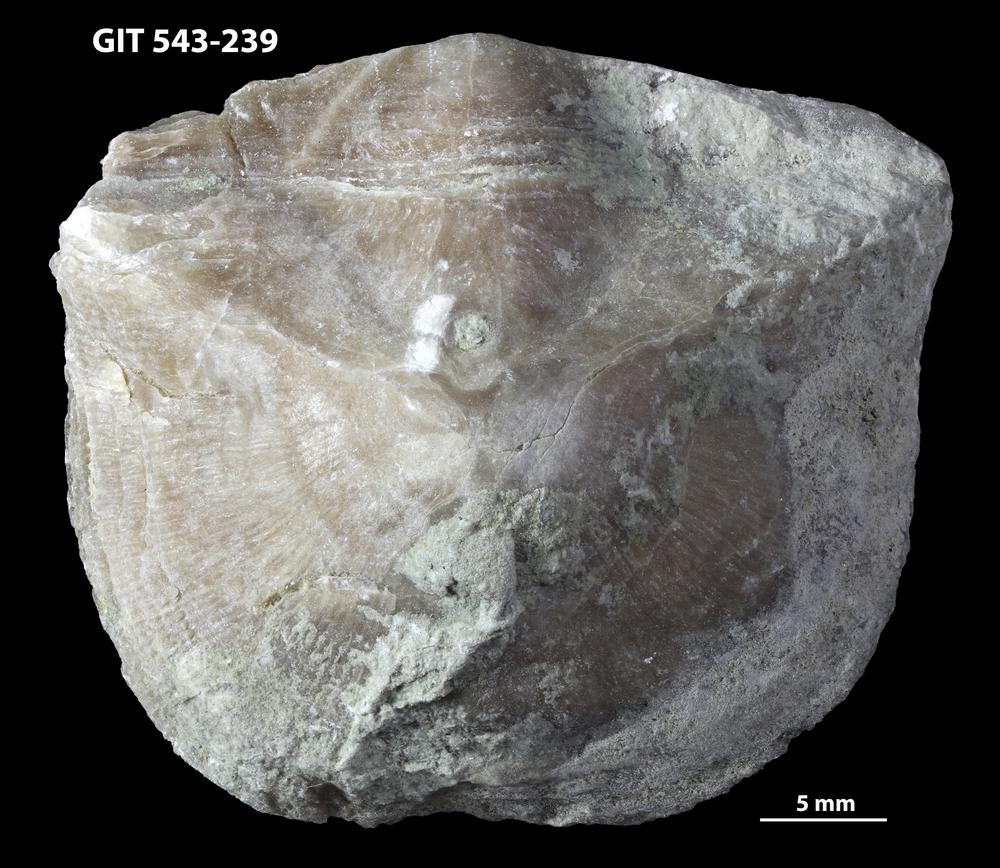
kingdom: Animalia
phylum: Brachiopoda
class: Rhynchonellata
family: Clitambonitidae
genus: Clinambon
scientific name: Clinambon anomalus
